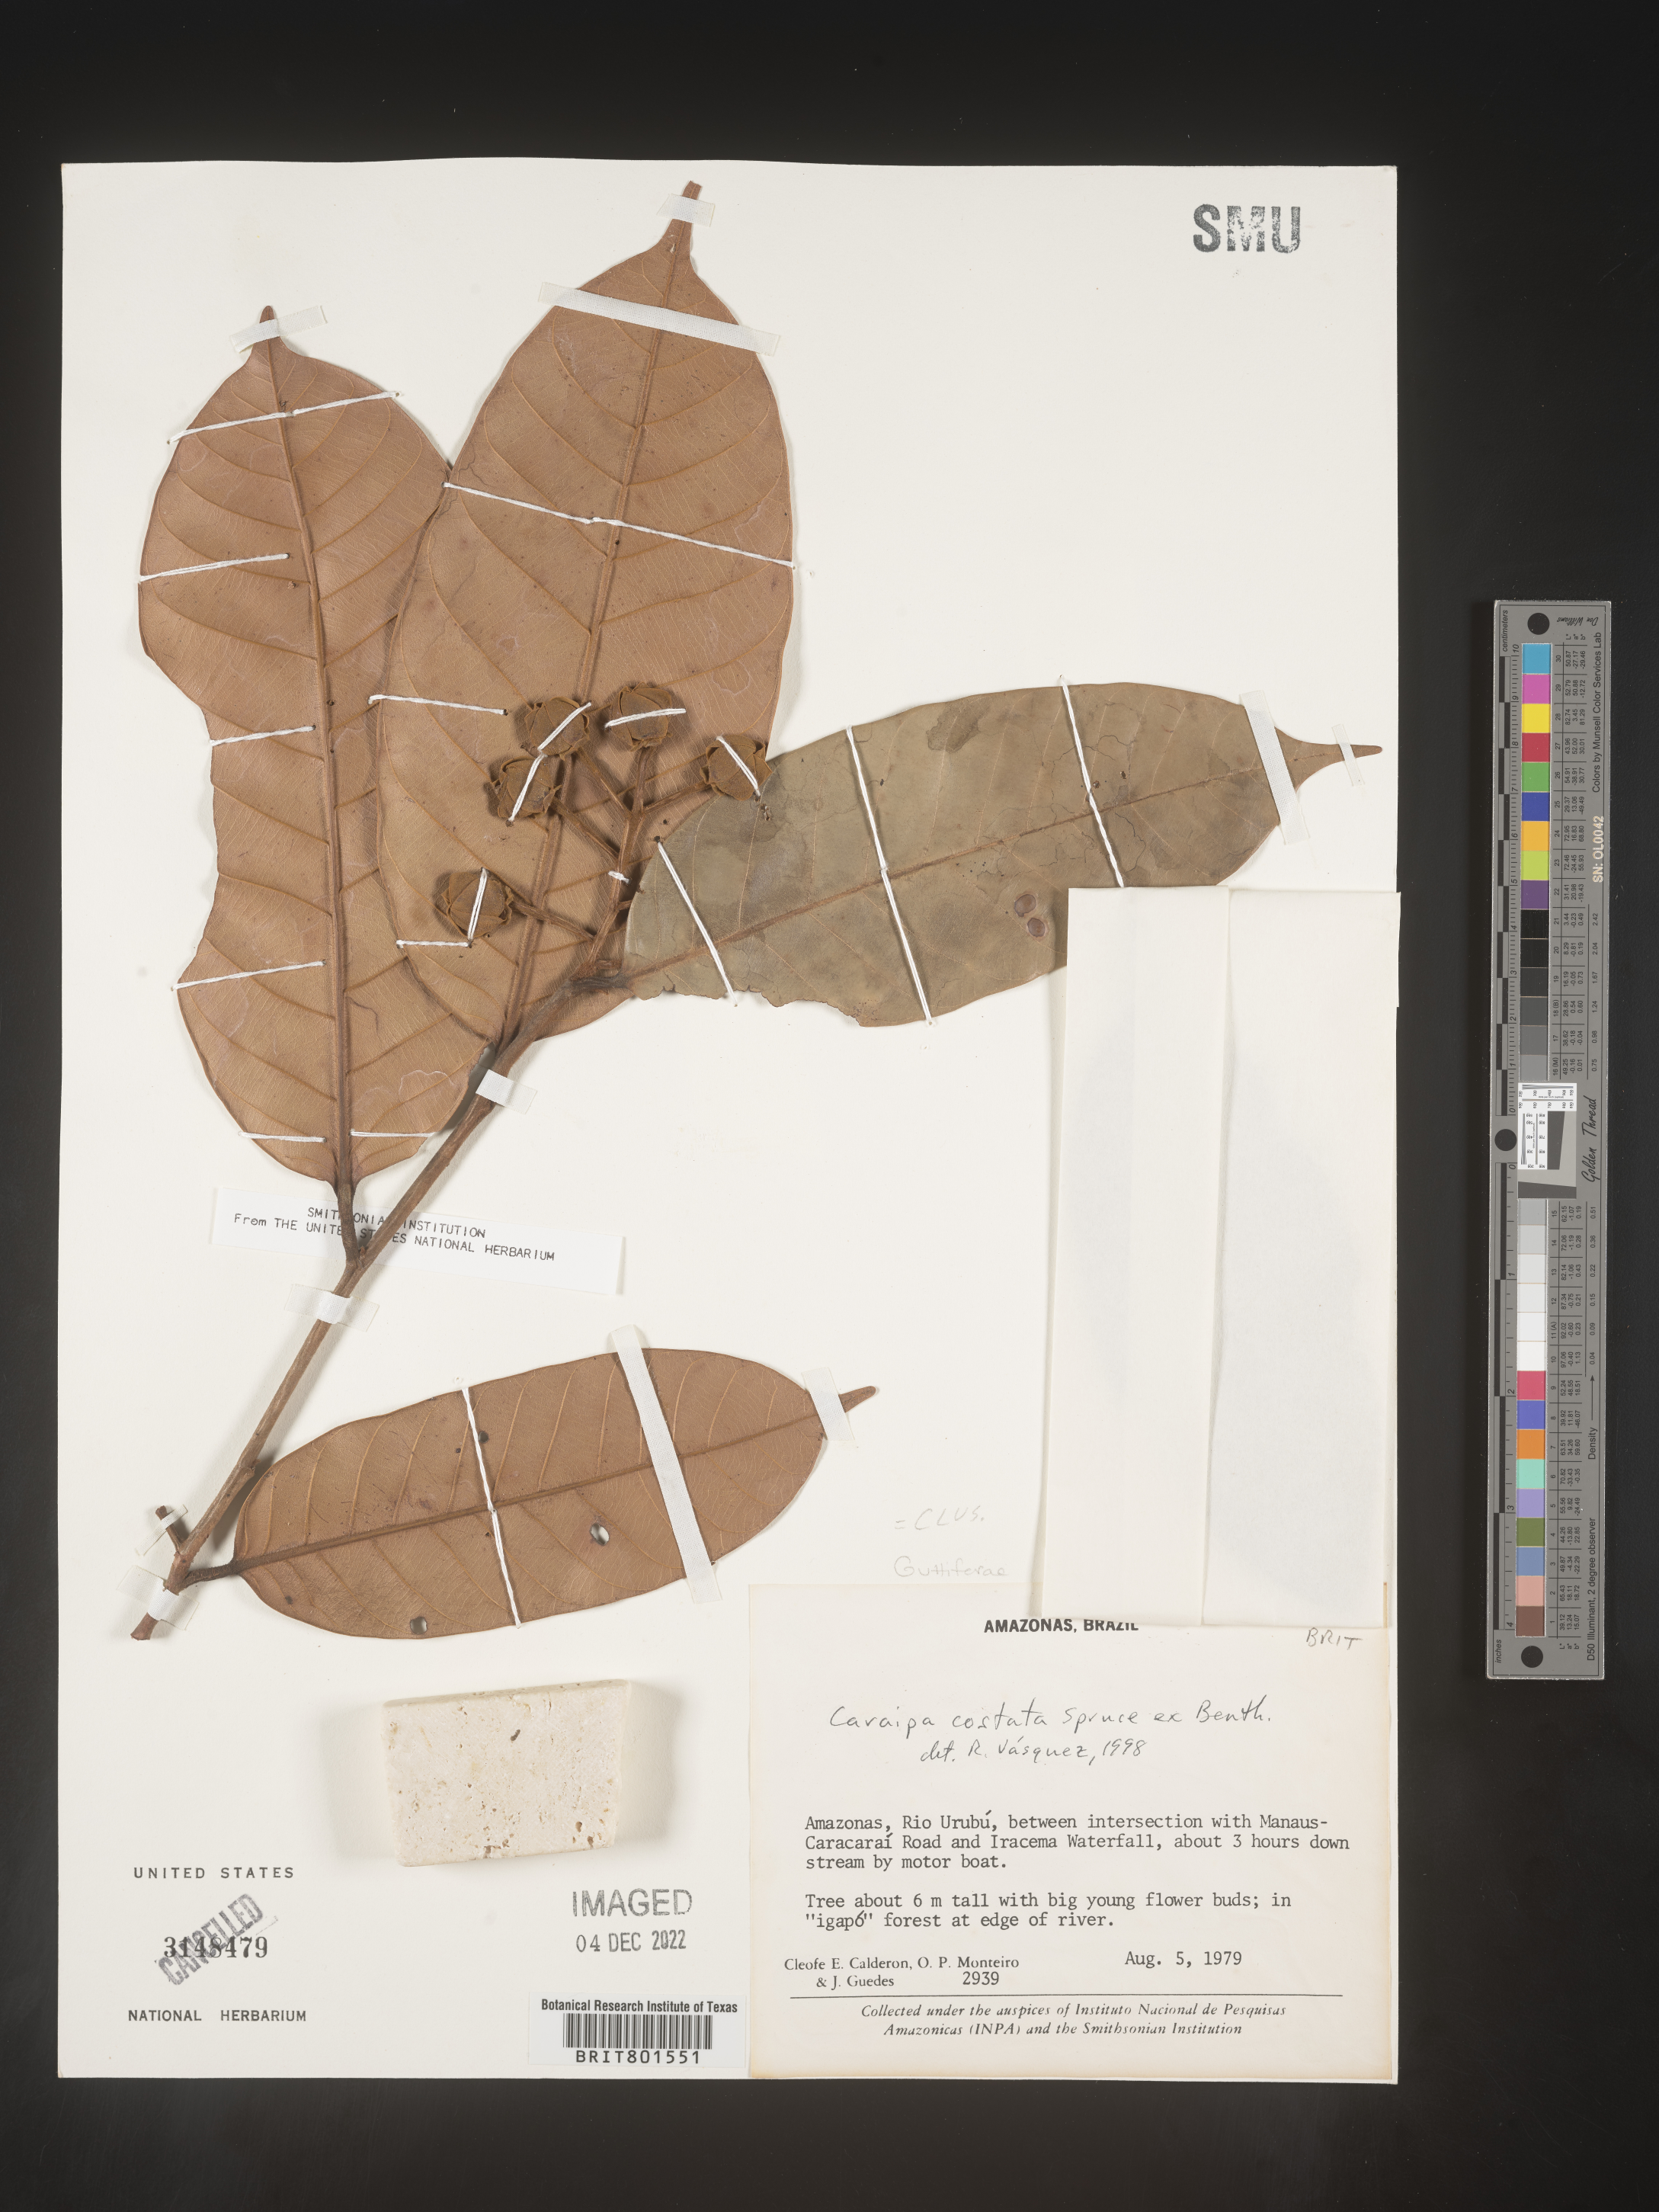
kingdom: Plantae
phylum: Tracheophyta
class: Magnoliopsida
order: Malpighiales
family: Calophyllaceae
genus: Caraipa
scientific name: Caraipa
